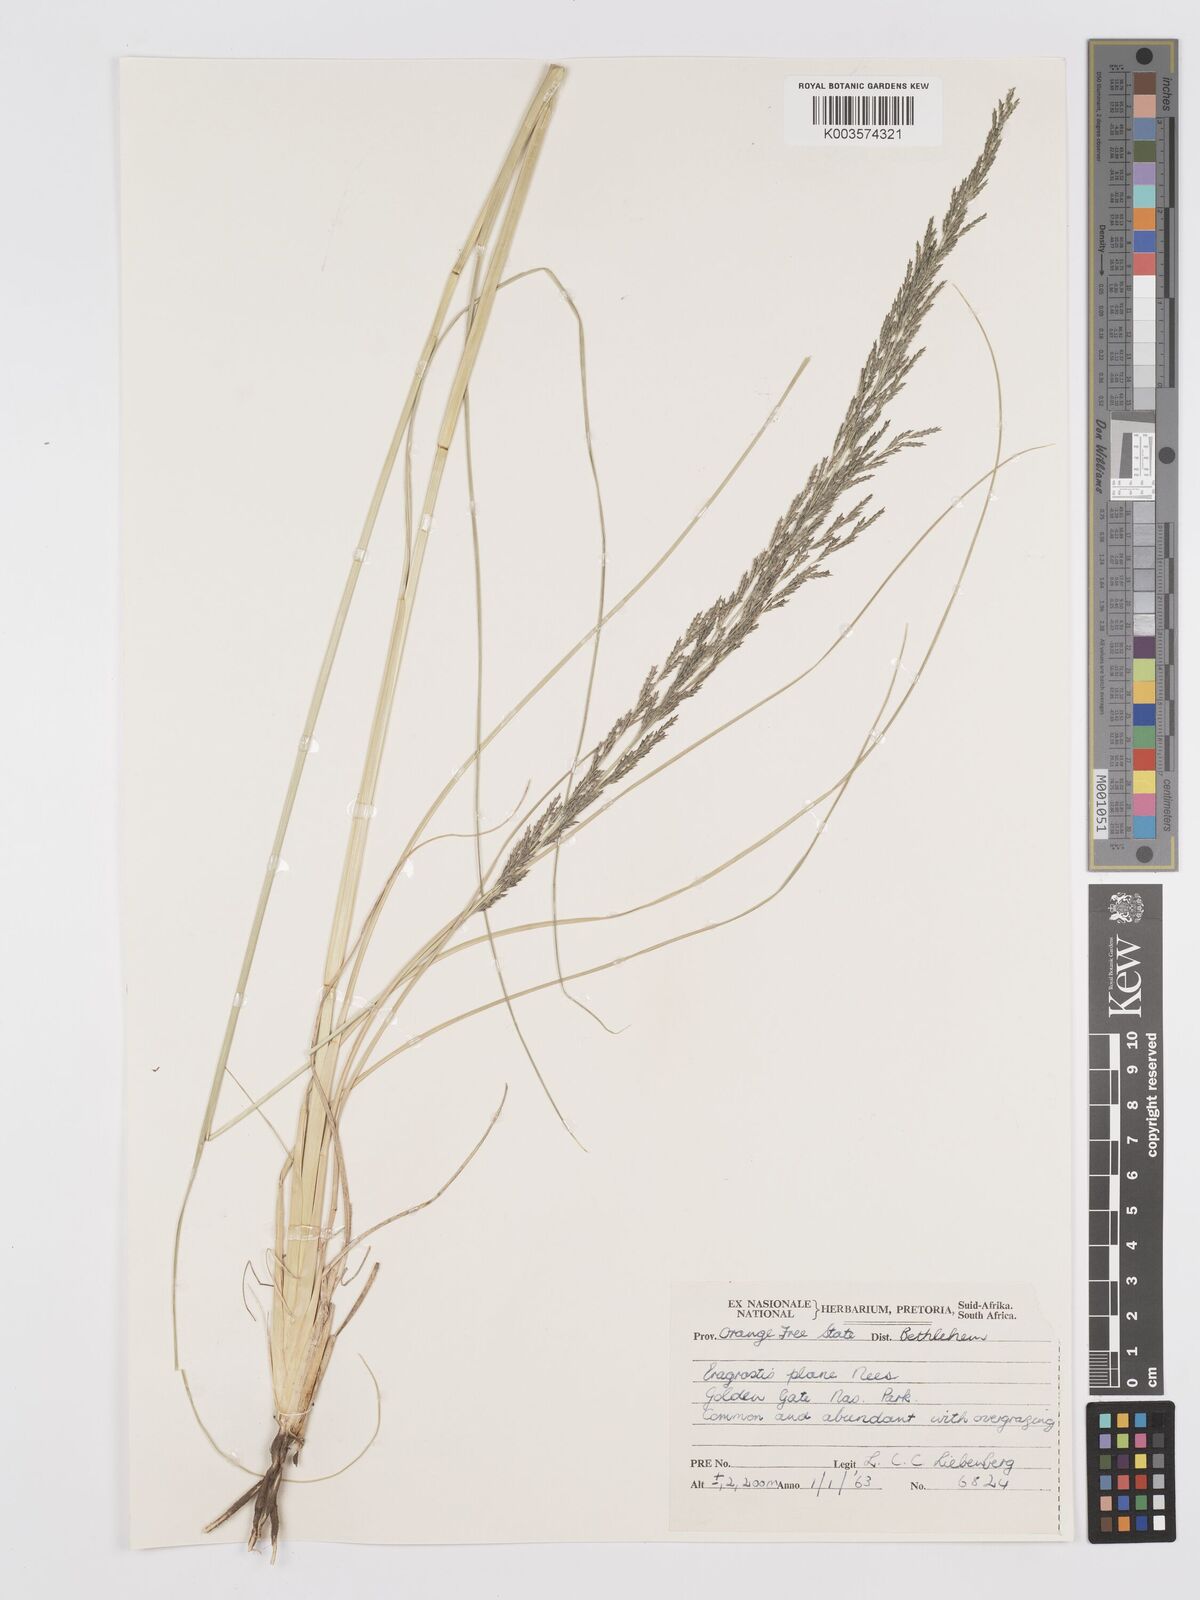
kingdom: Plantae
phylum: Tracheophyta
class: Liliopsida
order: Poales
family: Poaceae
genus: Eragrostis
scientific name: Eragrostis plana
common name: South african lovegrass
